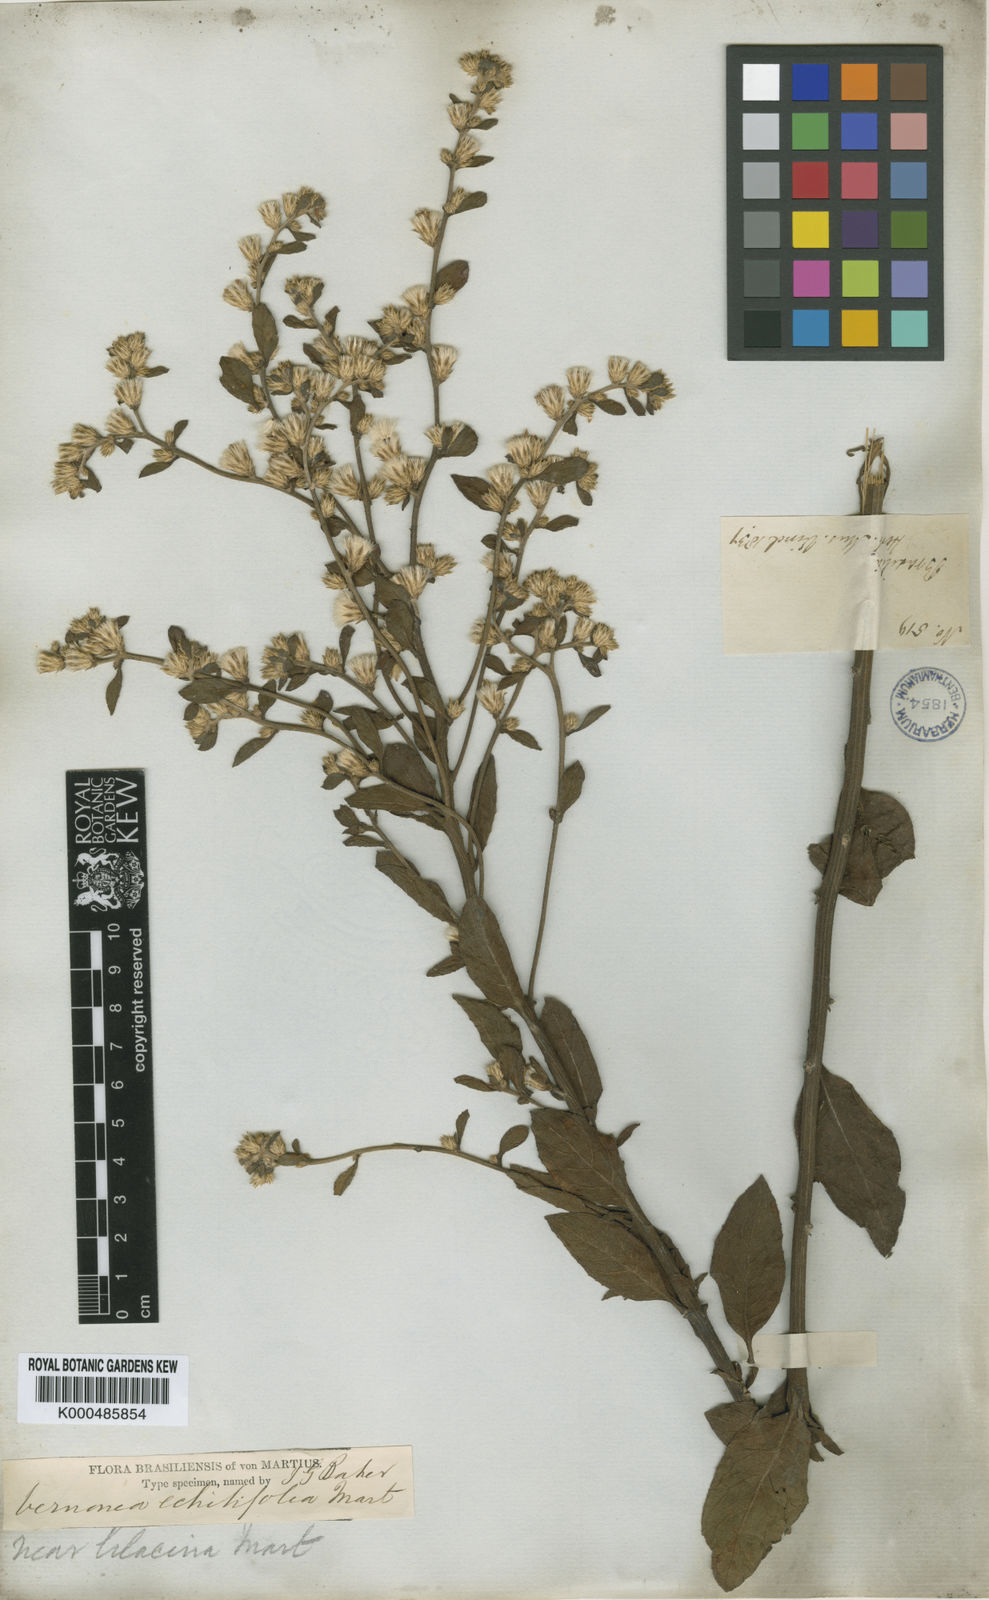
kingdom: Plantae
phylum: Tracheophyta
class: Magnoliopsida
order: Asterales
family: Asteraceae
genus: Acilepidopsis
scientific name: Acilepidopsis echitifolia
